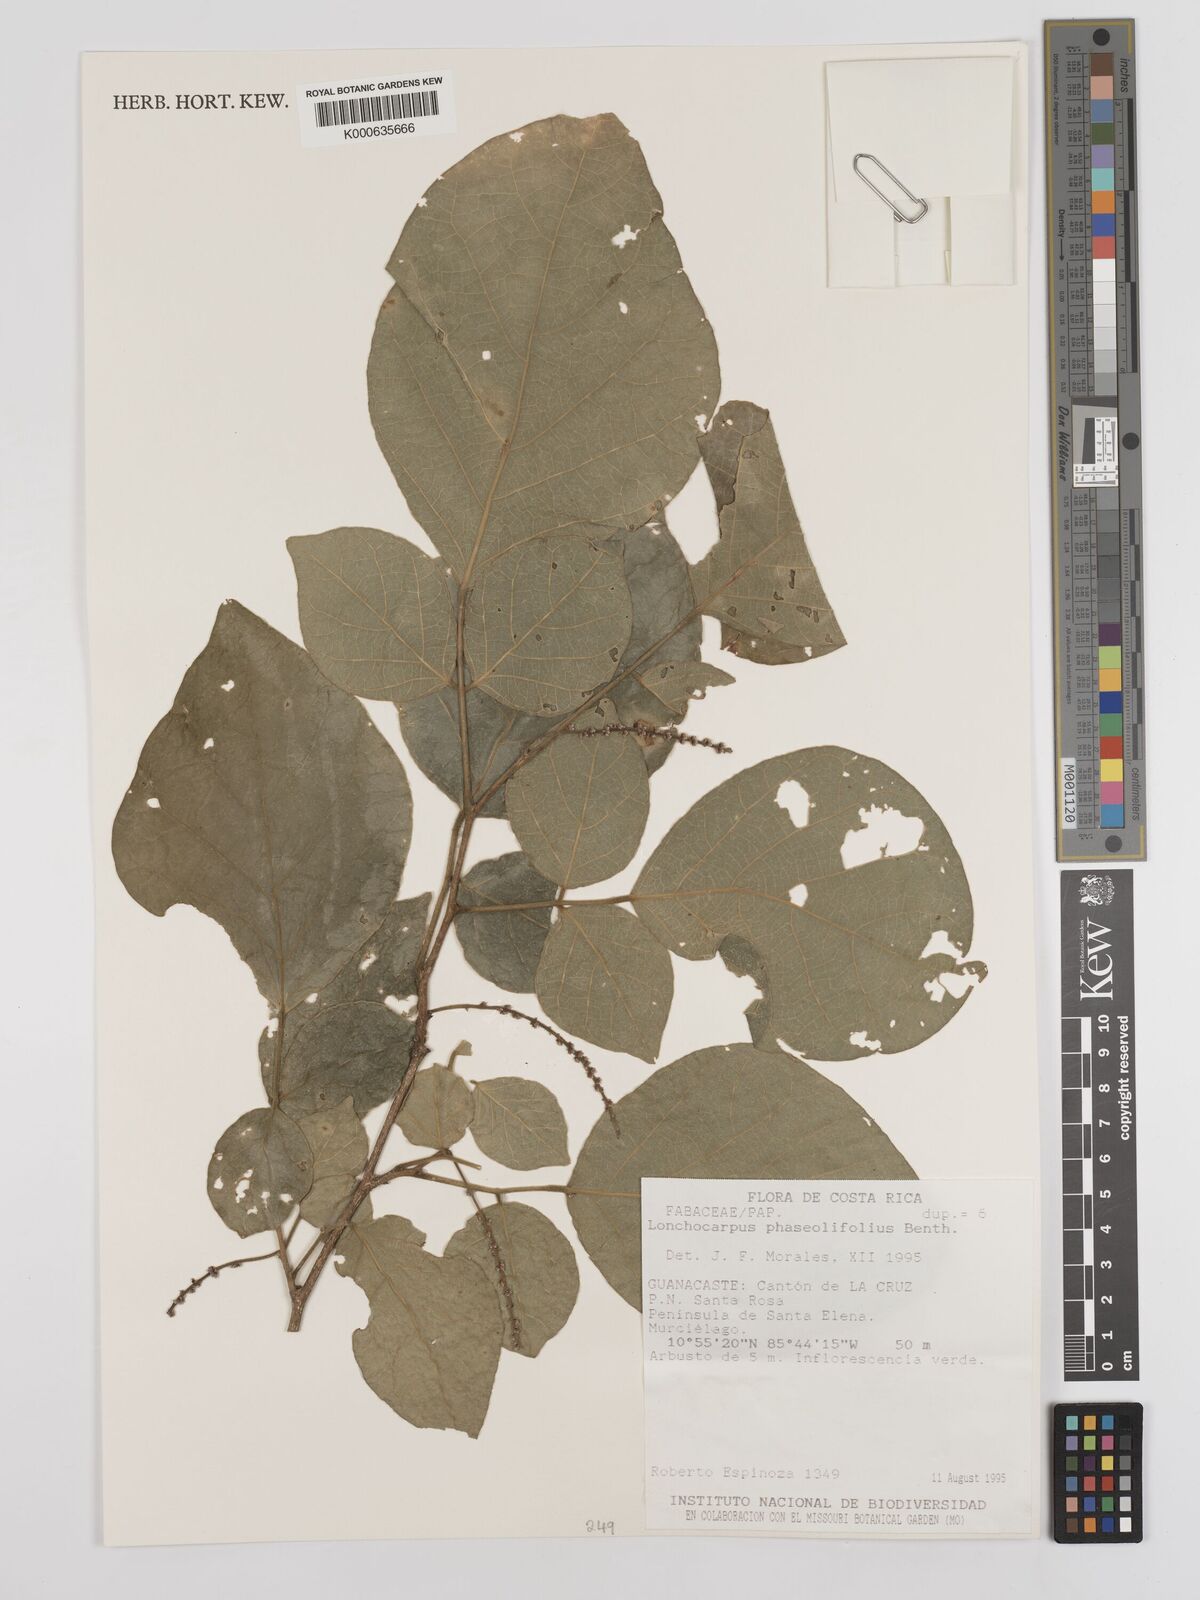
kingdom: Plantae
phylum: Tracheophyta
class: Magnoliopsida
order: Fabales
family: Fabaceae
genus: Lonchocarpus
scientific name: Lonchocarpus phaseolifolius
